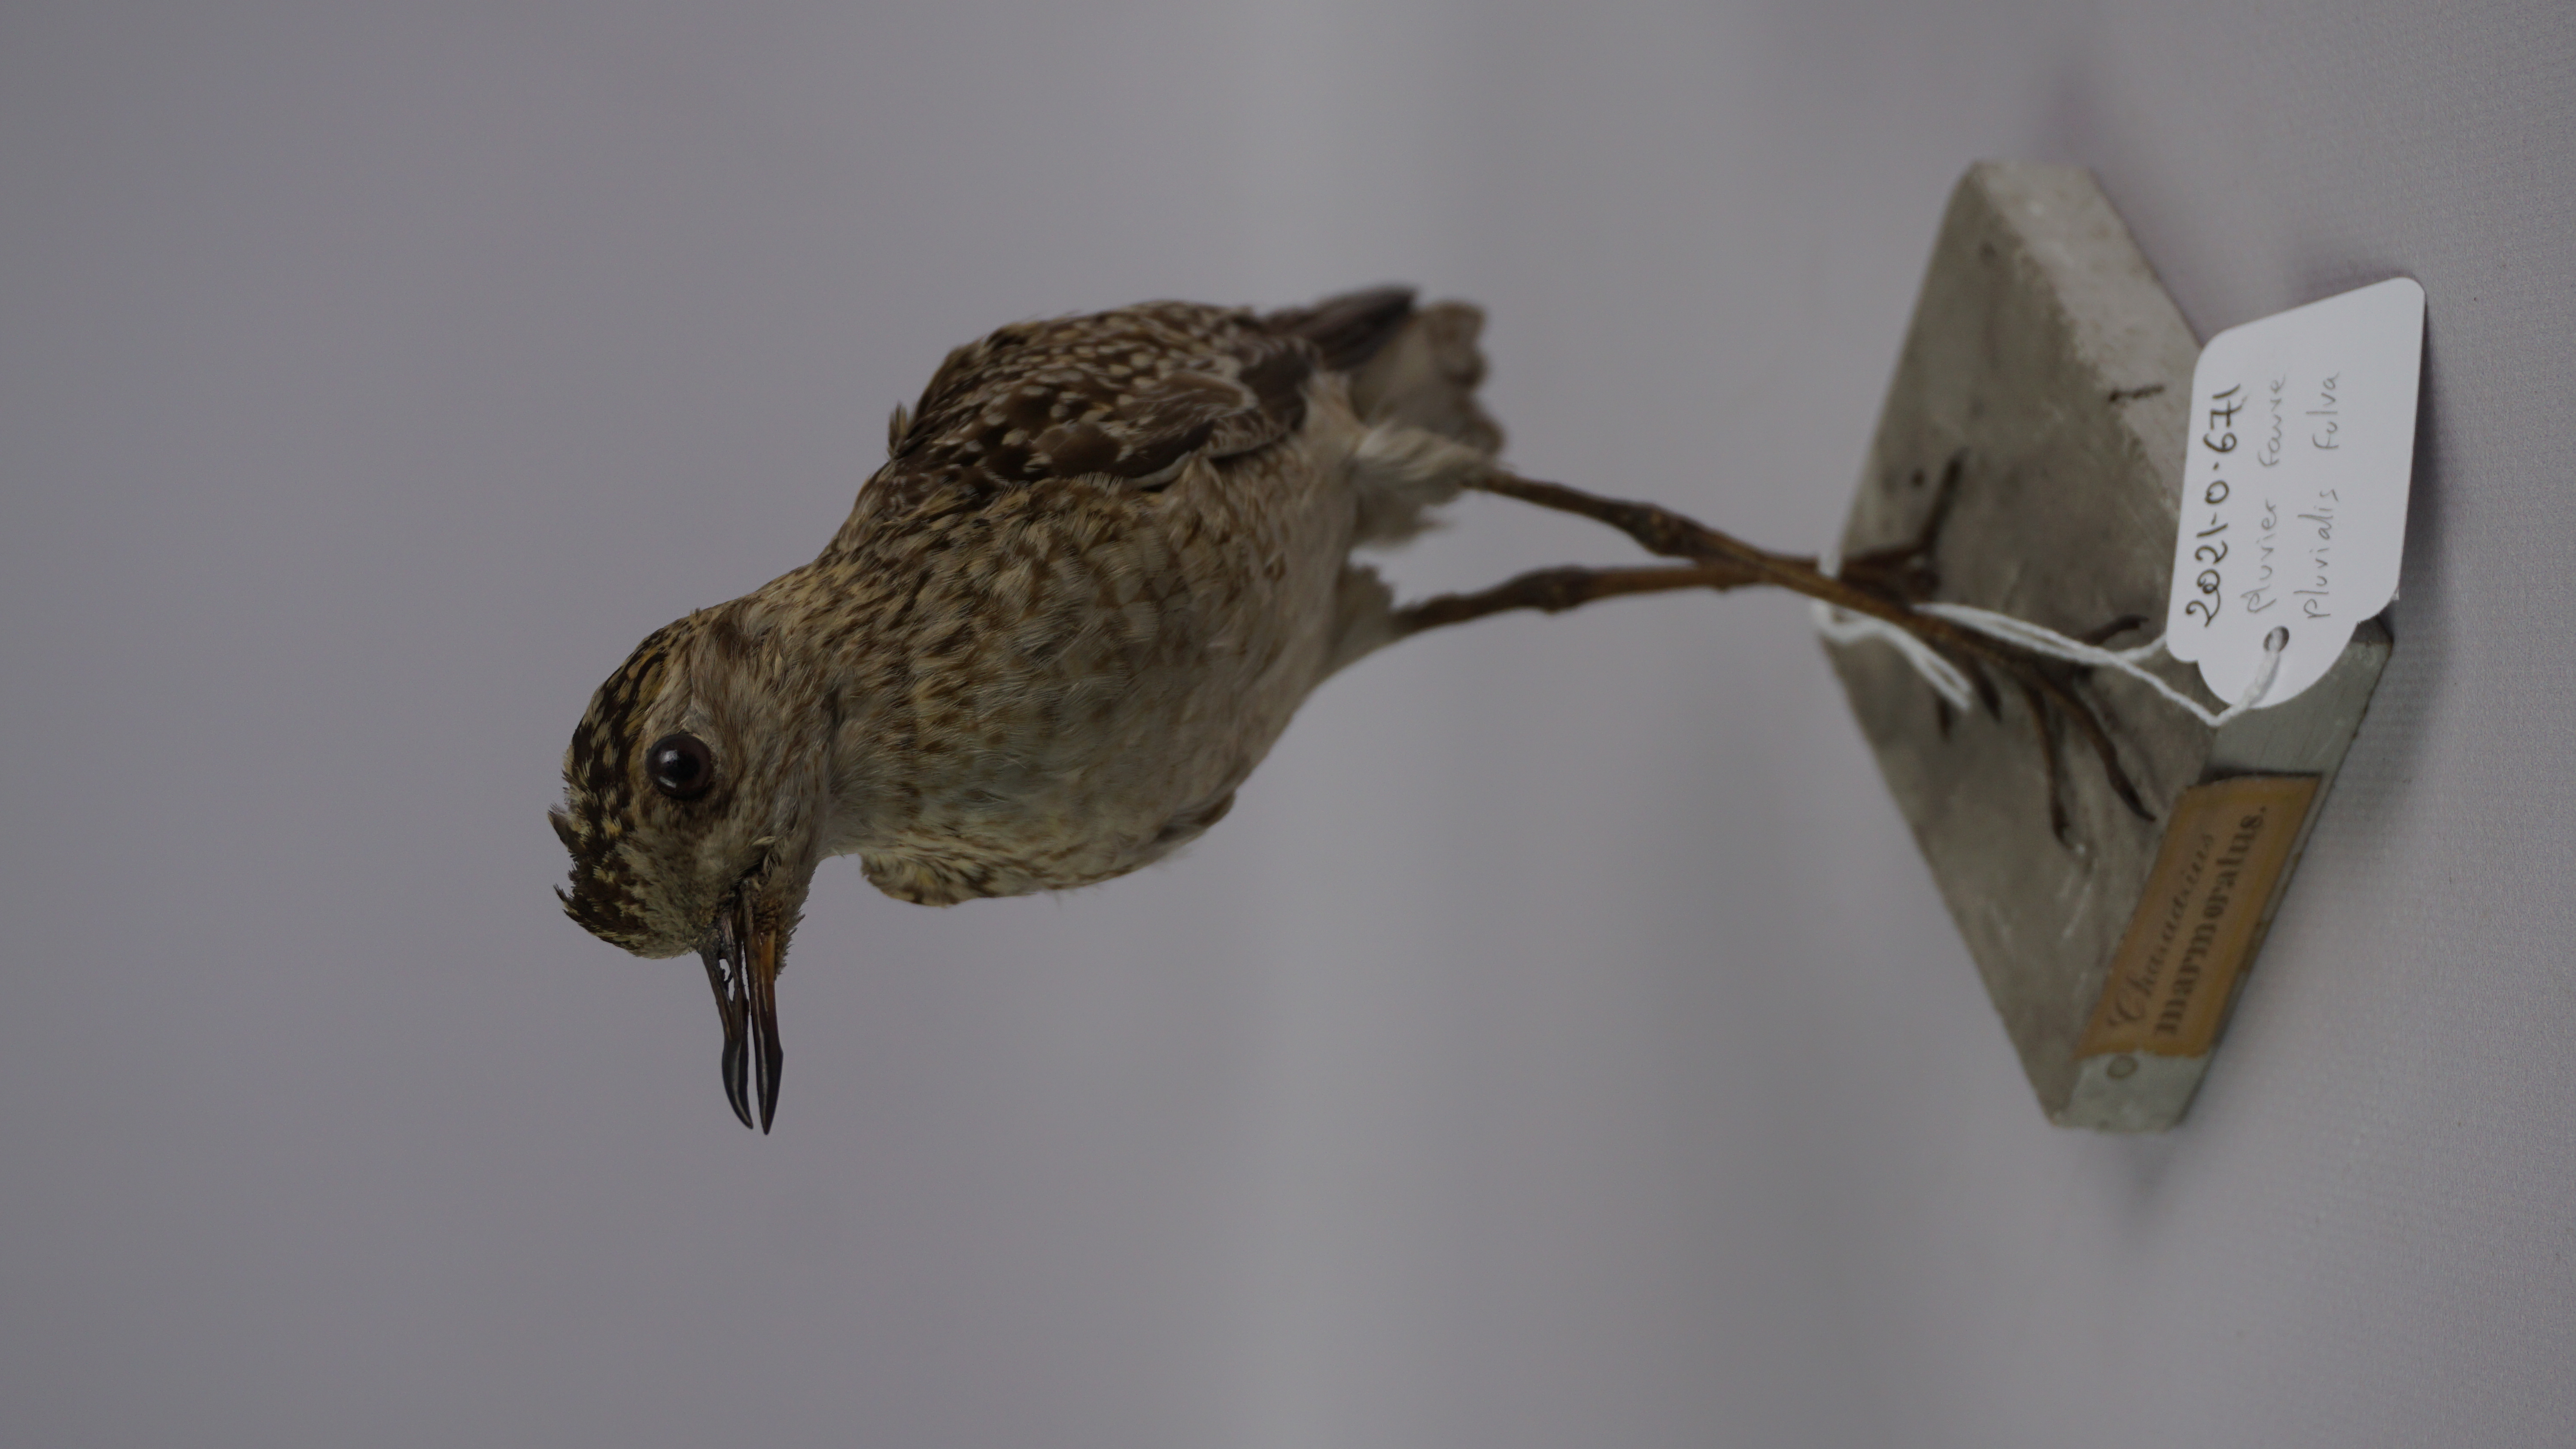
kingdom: Animalia
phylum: Chordata
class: Aves
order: Charadriiformes
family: Charadriidae
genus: Pluvialis
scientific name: Pluvialis fulva
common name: Pacific golden plover
